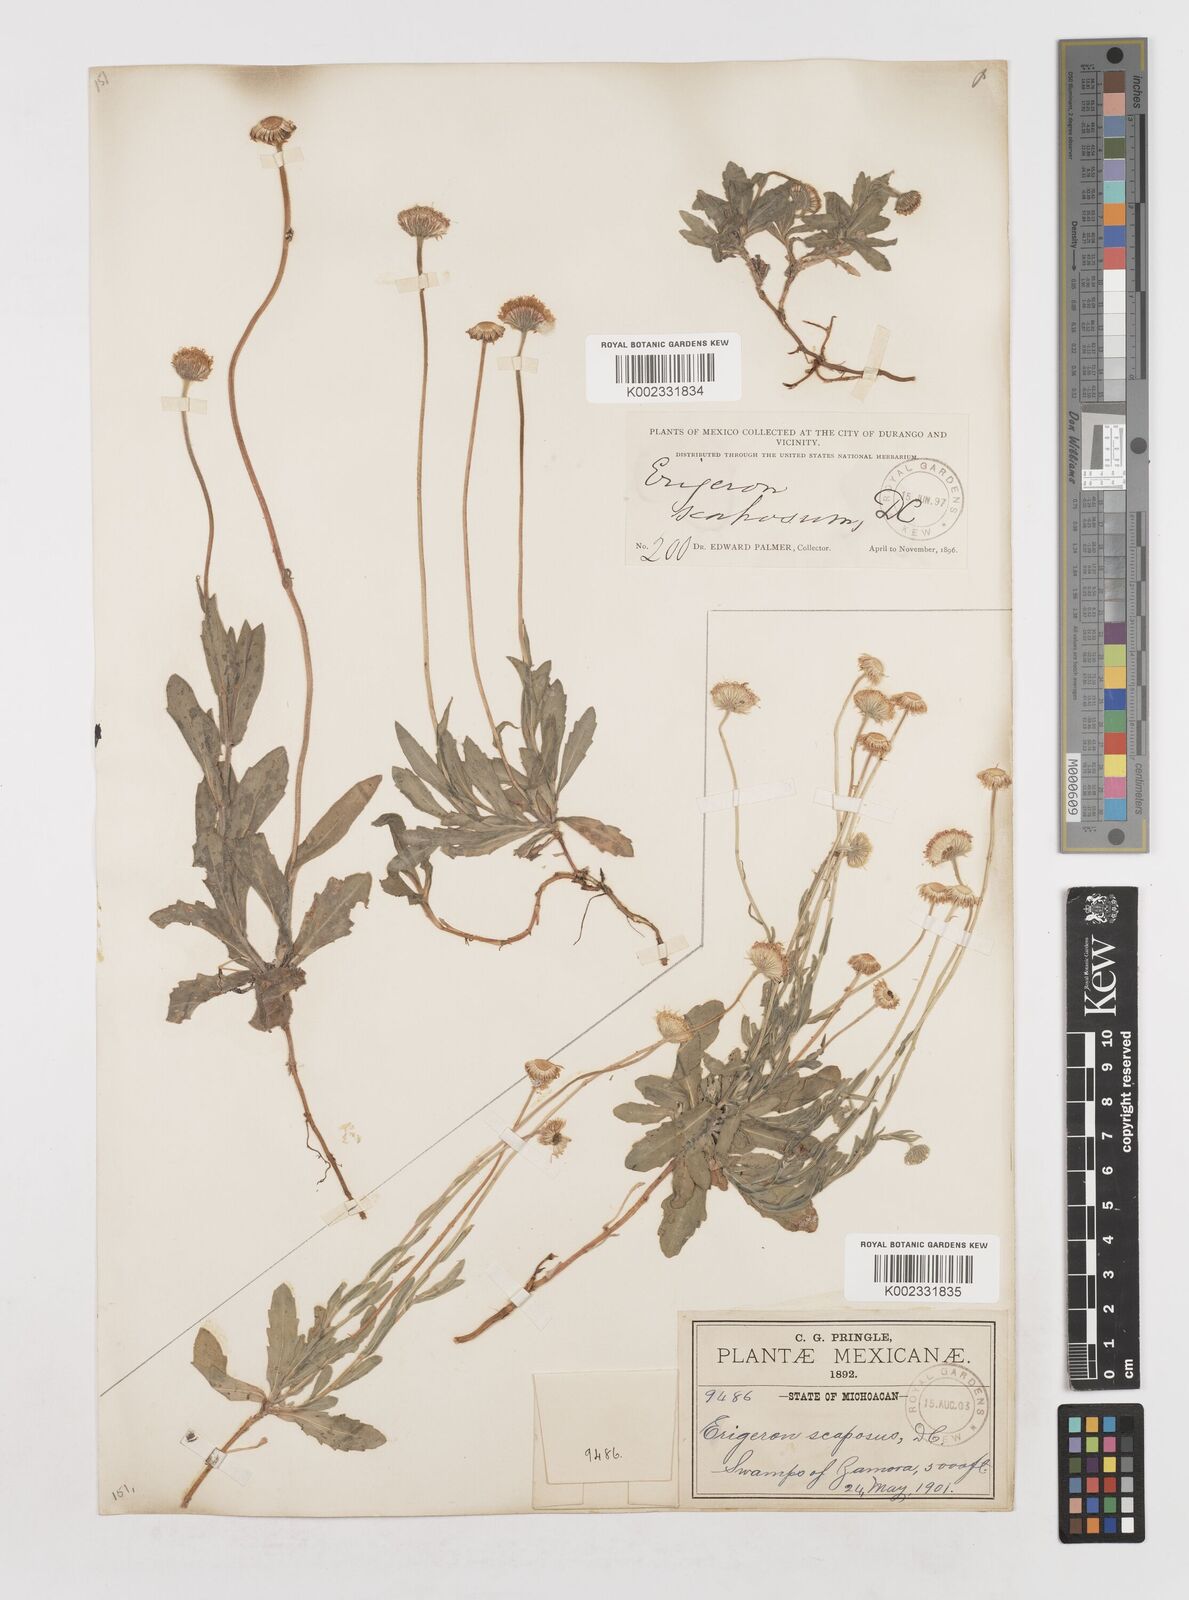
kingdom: Plantae
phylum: Tracheophyta
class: Magnoliopsida
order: Asterales
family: Asteraceae
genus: Erigeron
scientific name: Erigeron longipes
